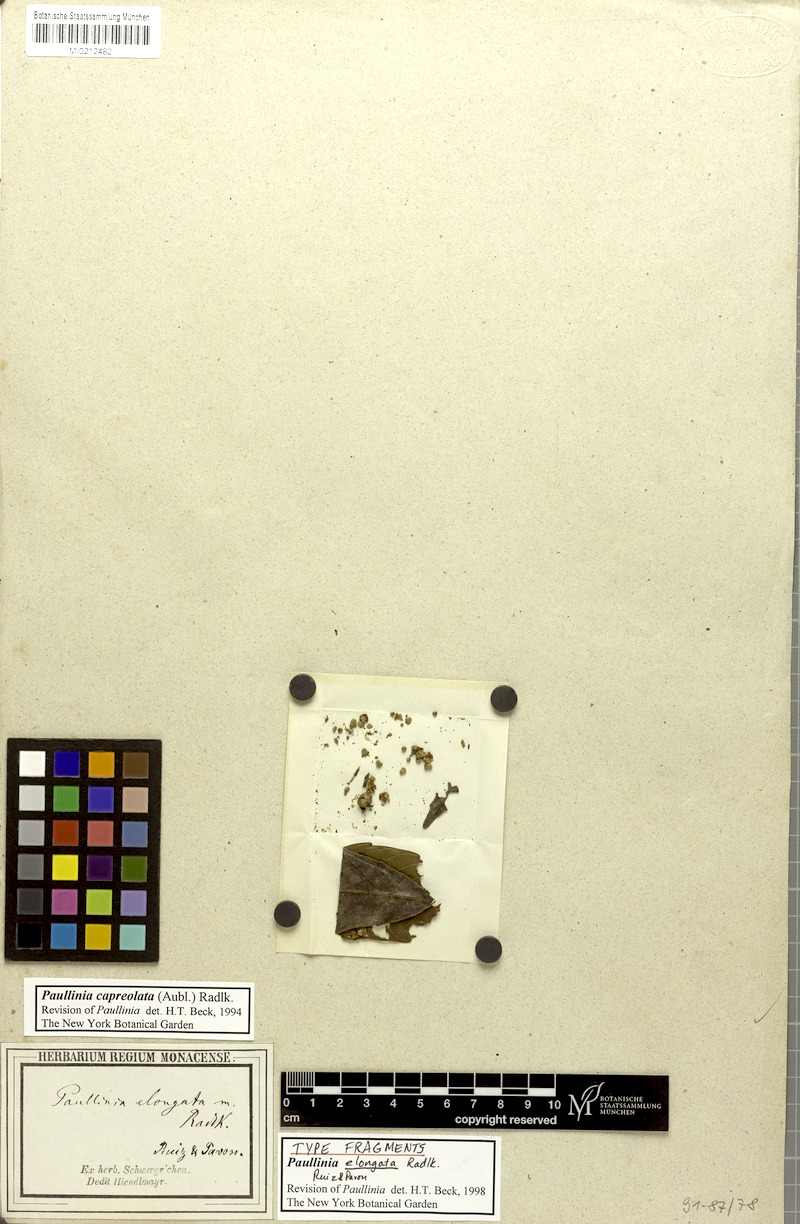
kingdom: Plantae
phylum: Tracheophyta
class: Magnoliopsida
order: Sapindales
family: Sapindaceae
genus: Paullinia
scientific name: Paullinia capreolata
